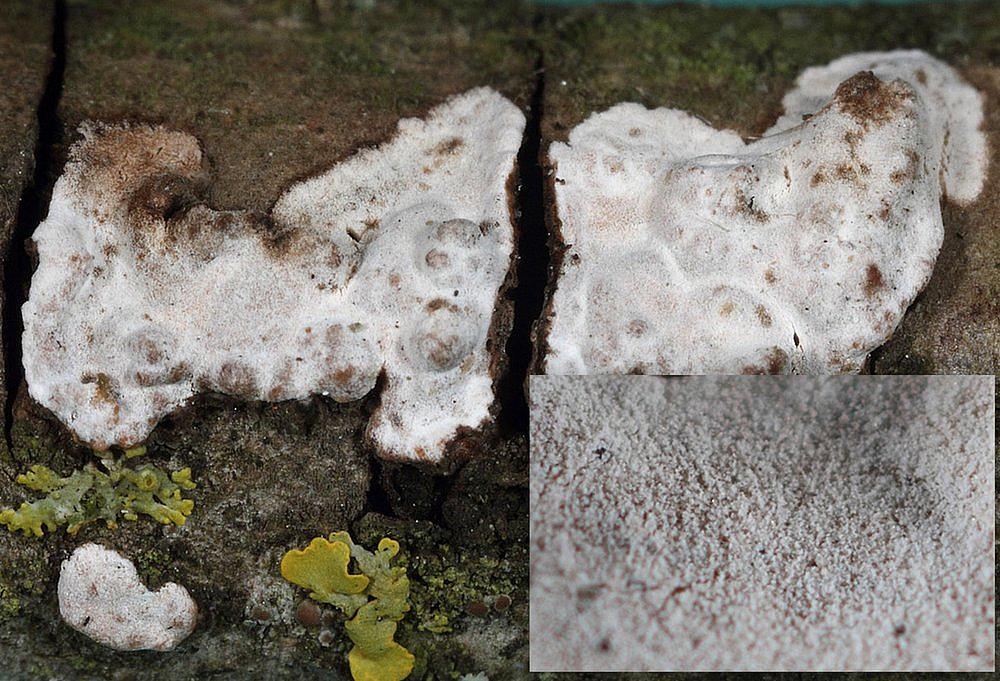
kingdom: Fungi
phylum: Basidiomycota
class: Agaricomycetes
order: Russulales
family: Peniophoraceae
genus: Peniophora
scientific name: Peniophora polygonia
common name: polygon-voksskind
